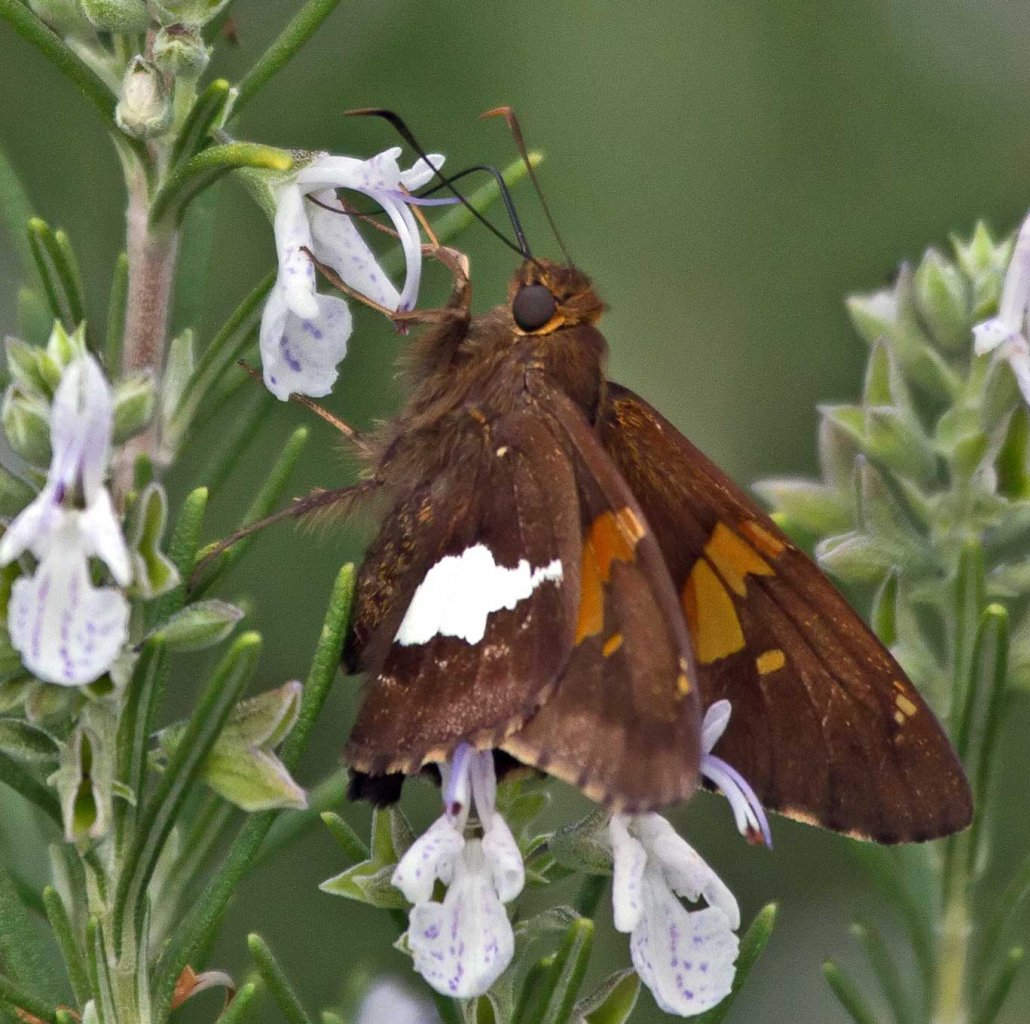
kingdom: Animalia
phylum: Arthropoda
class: Insecta
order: Lepidoptera
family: Hesperiidae
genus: Epargyreus
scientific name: Epargyreus clarus
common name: Silver-spotted Skipper
